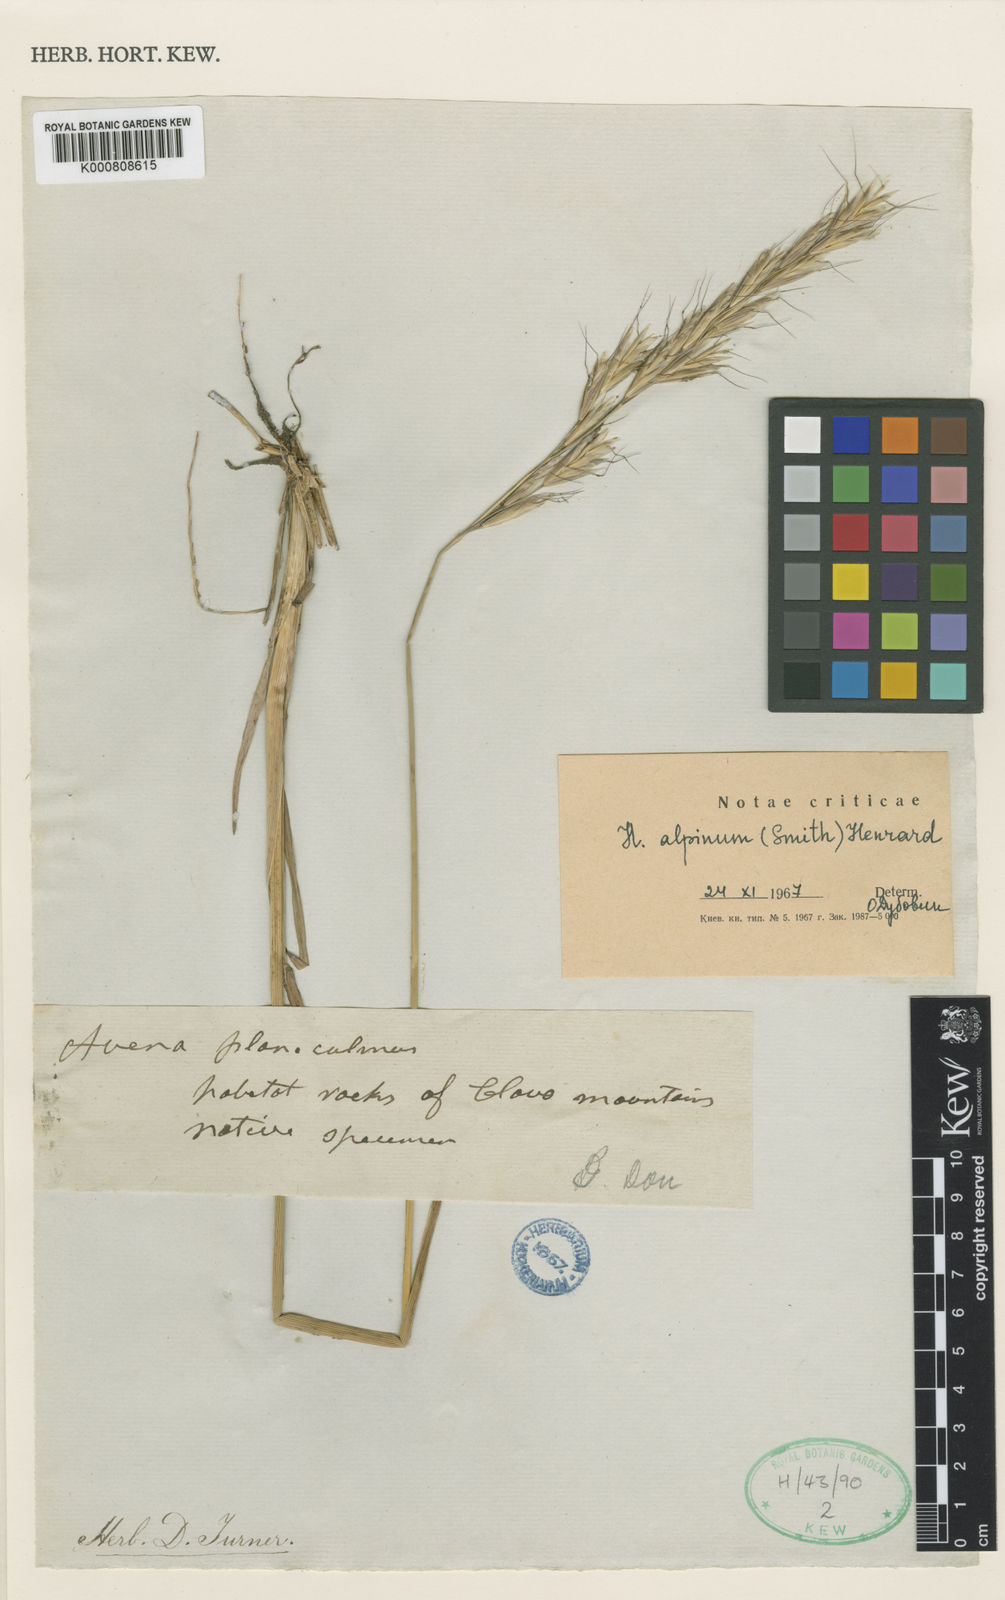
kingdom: Plantae
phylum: Tracheophyta
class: Liliopsida
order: Poales
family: Poaceae
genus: Helictochloa
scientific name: Helictochloa pratensis
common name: Meadow oat grass
